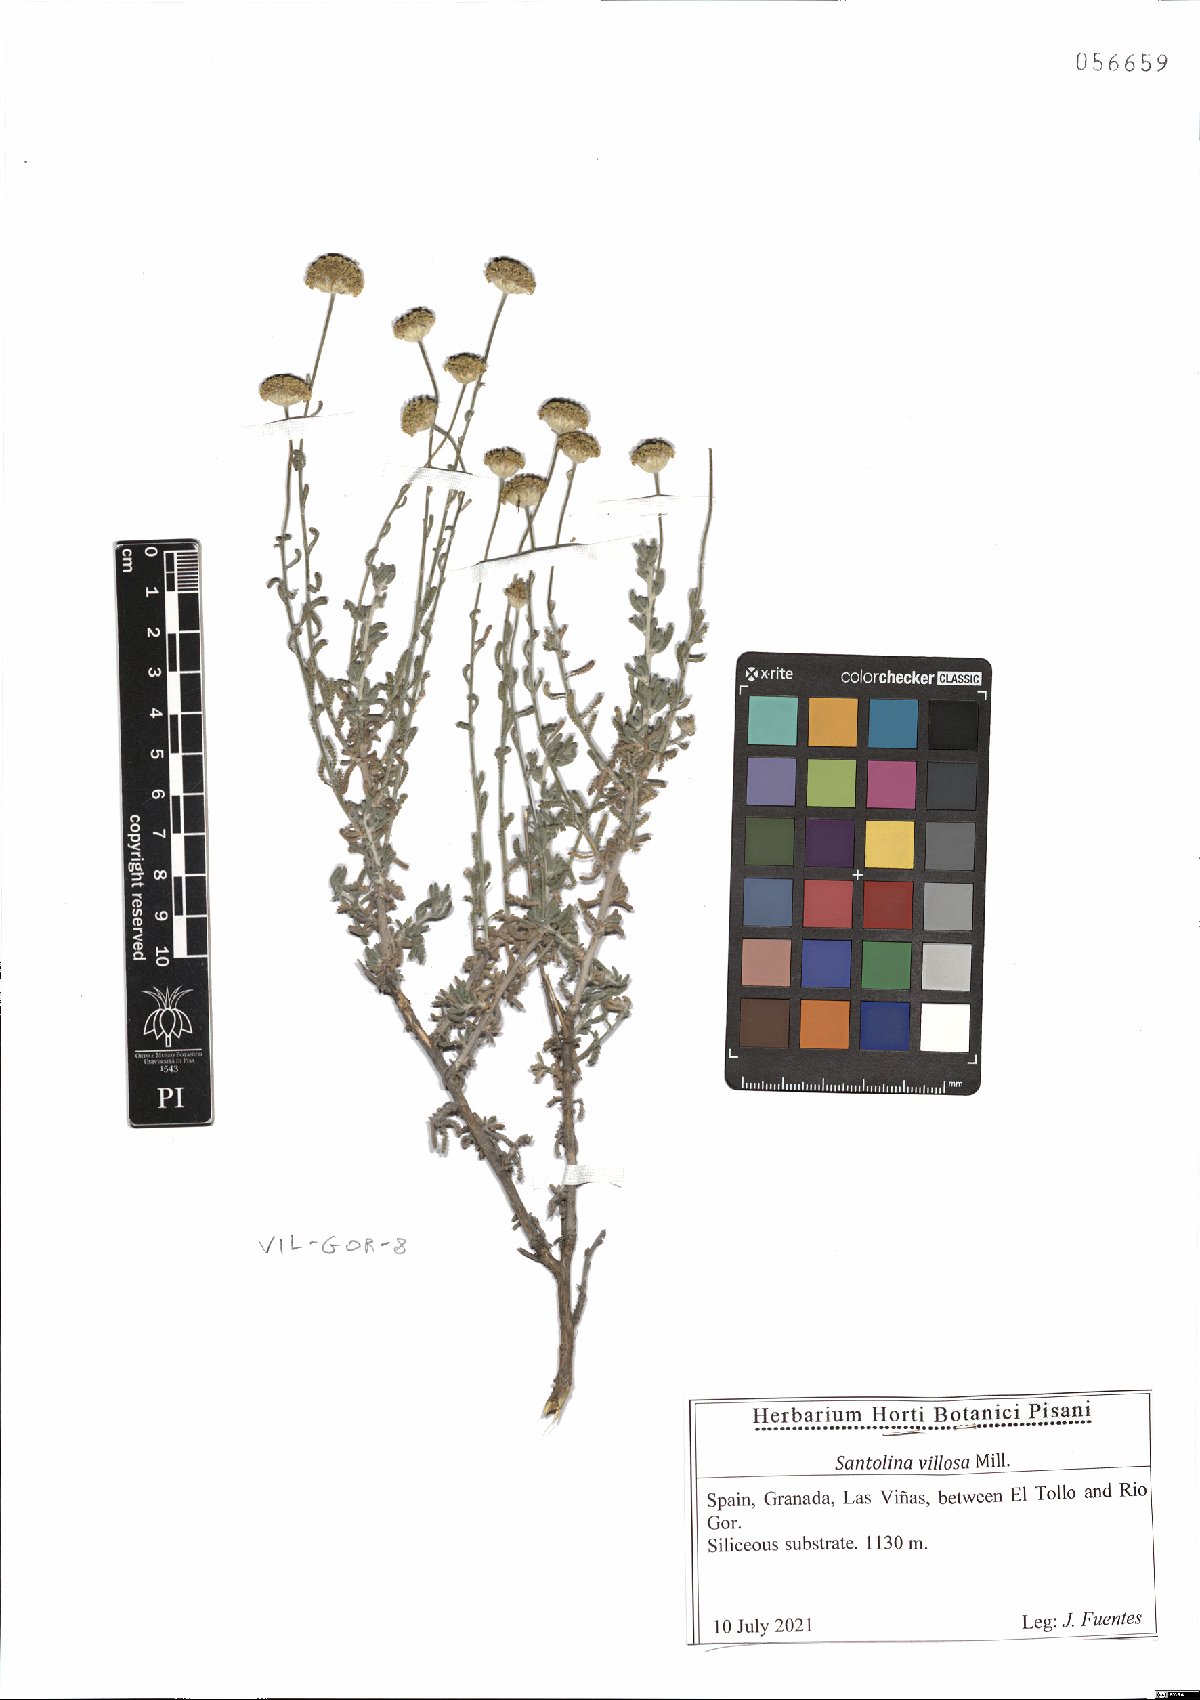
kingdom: Plantae
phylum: Tracheophyta
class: Magnoliopsida
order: Asterales
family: Asteraceae
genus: Santolina
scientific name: Santolina chamaecyparissus
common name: Lavender-cotton
